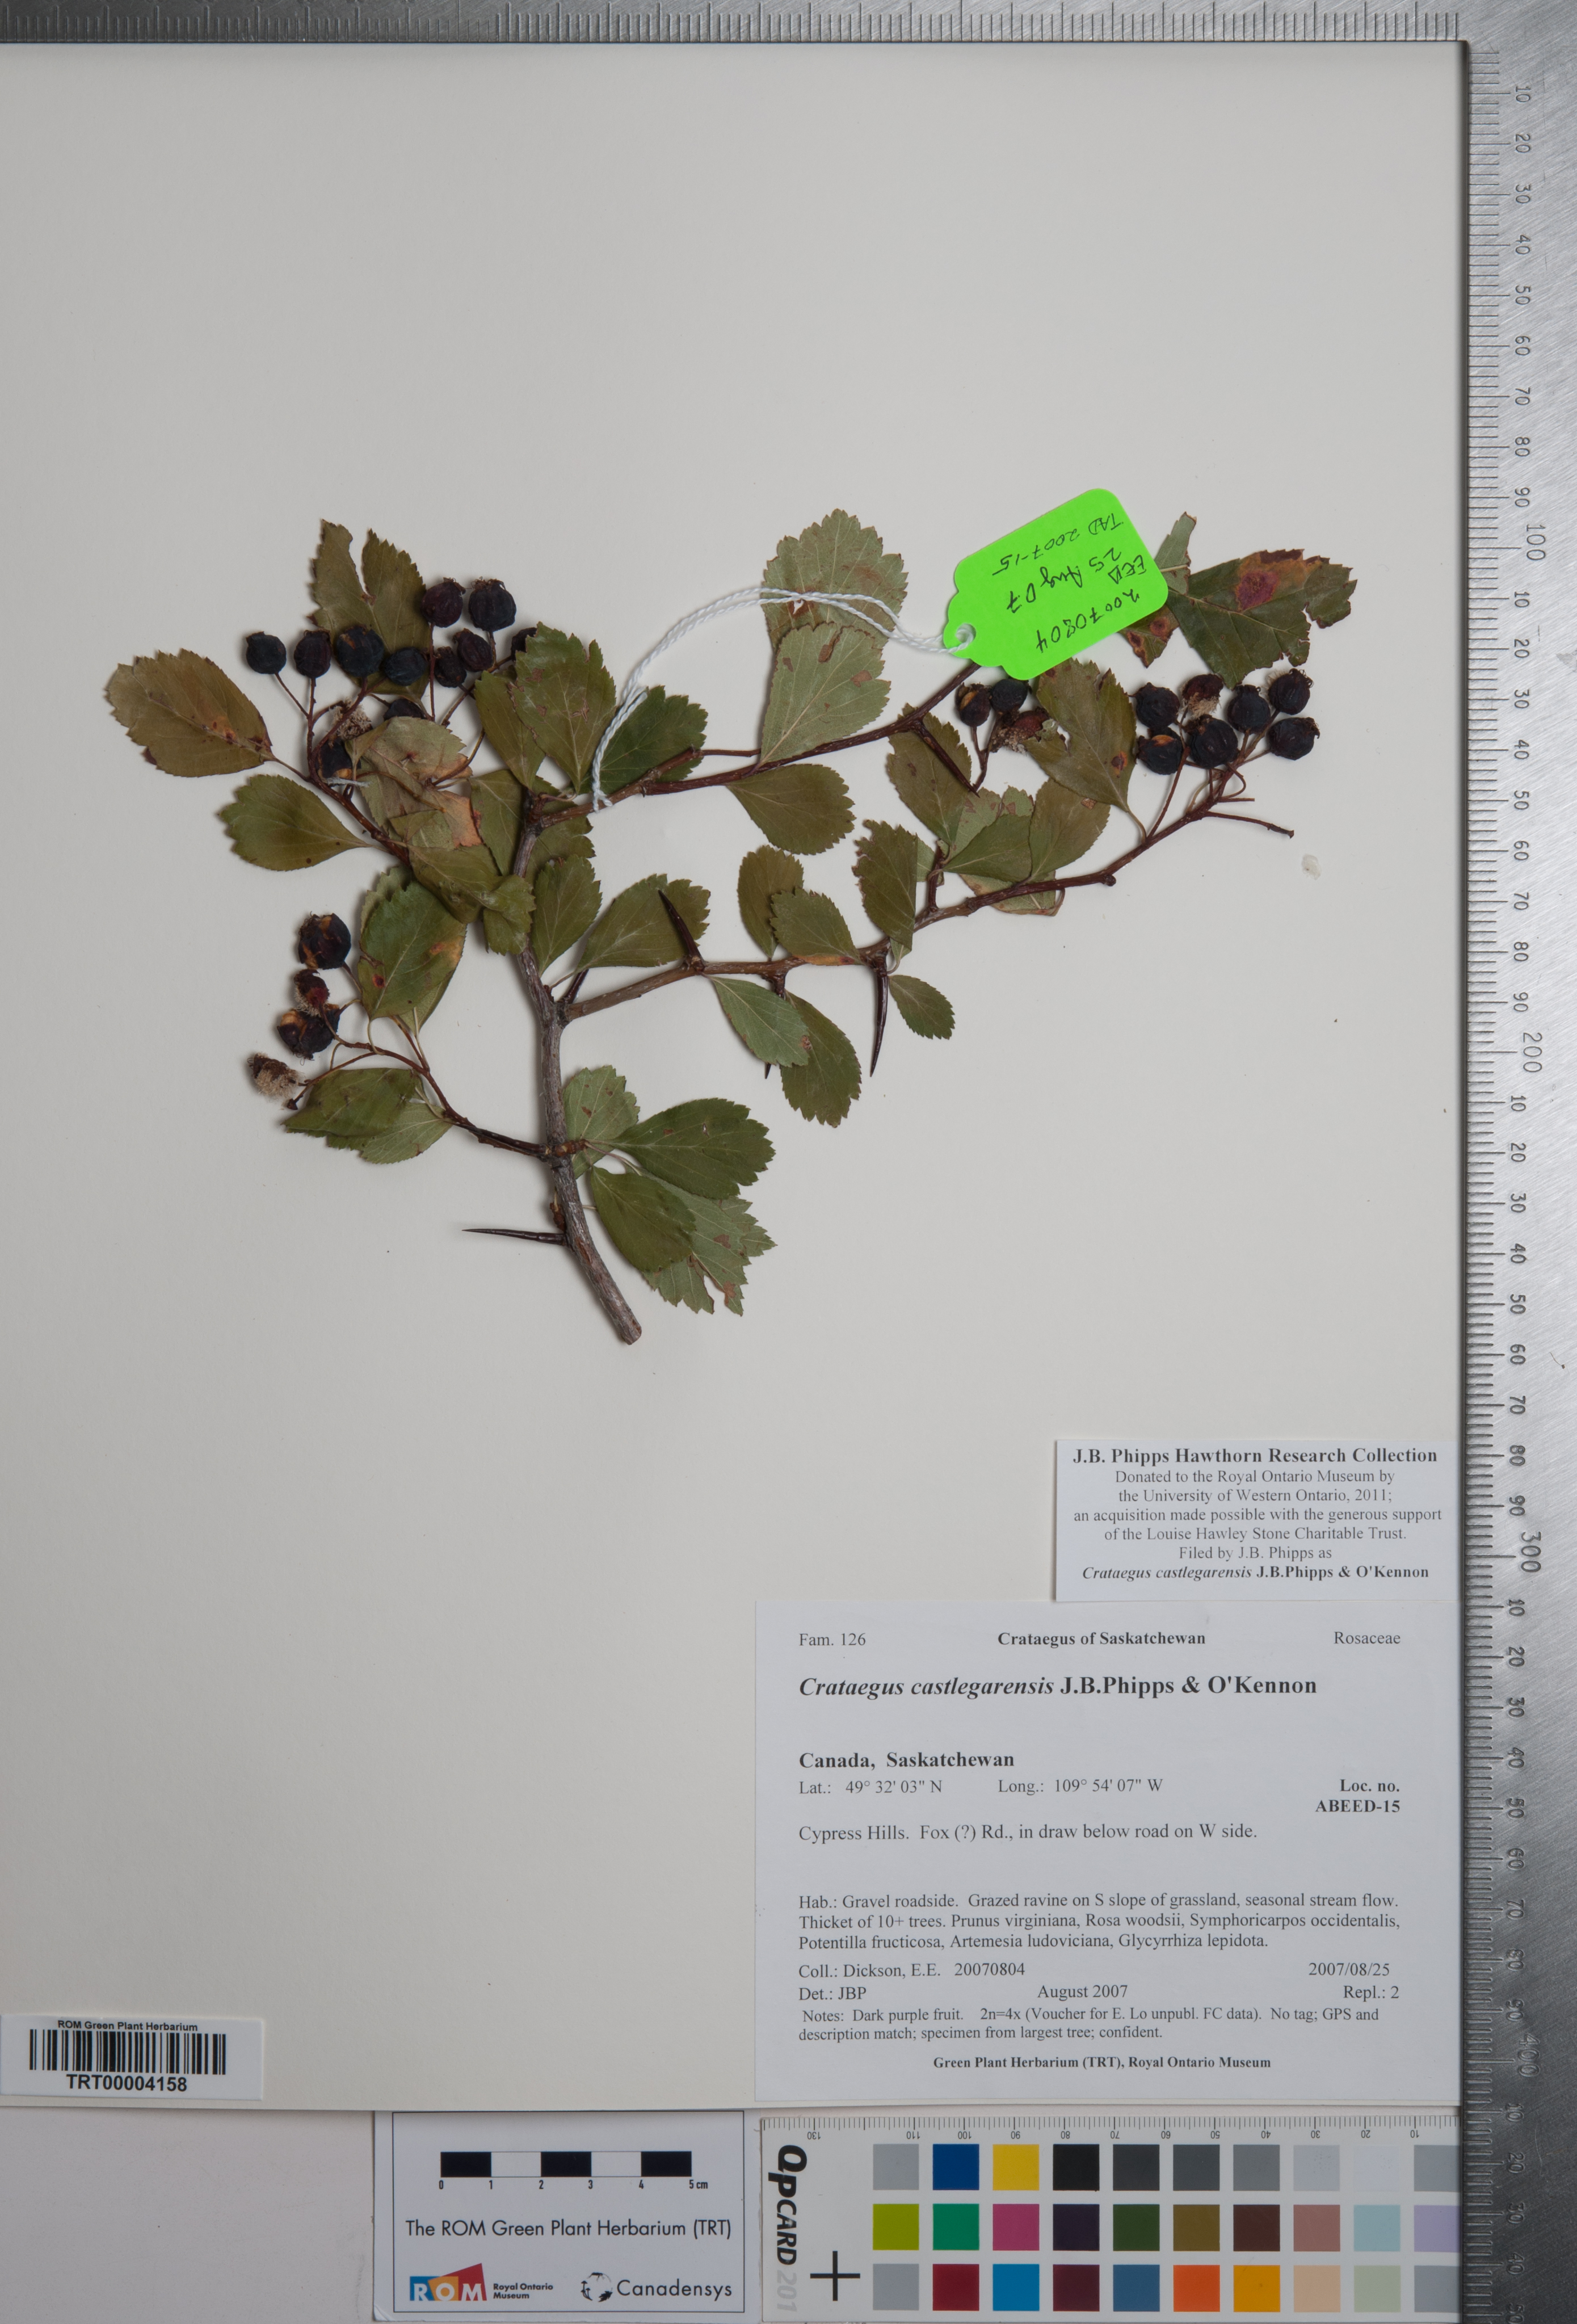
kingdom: Plantae
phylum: Tracheophyta
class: Magnoliopsida
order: Rosales
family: Rosaceae
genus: Crataegus
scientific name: Crataegus castlegarensis
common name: Castlegar hawthorn
